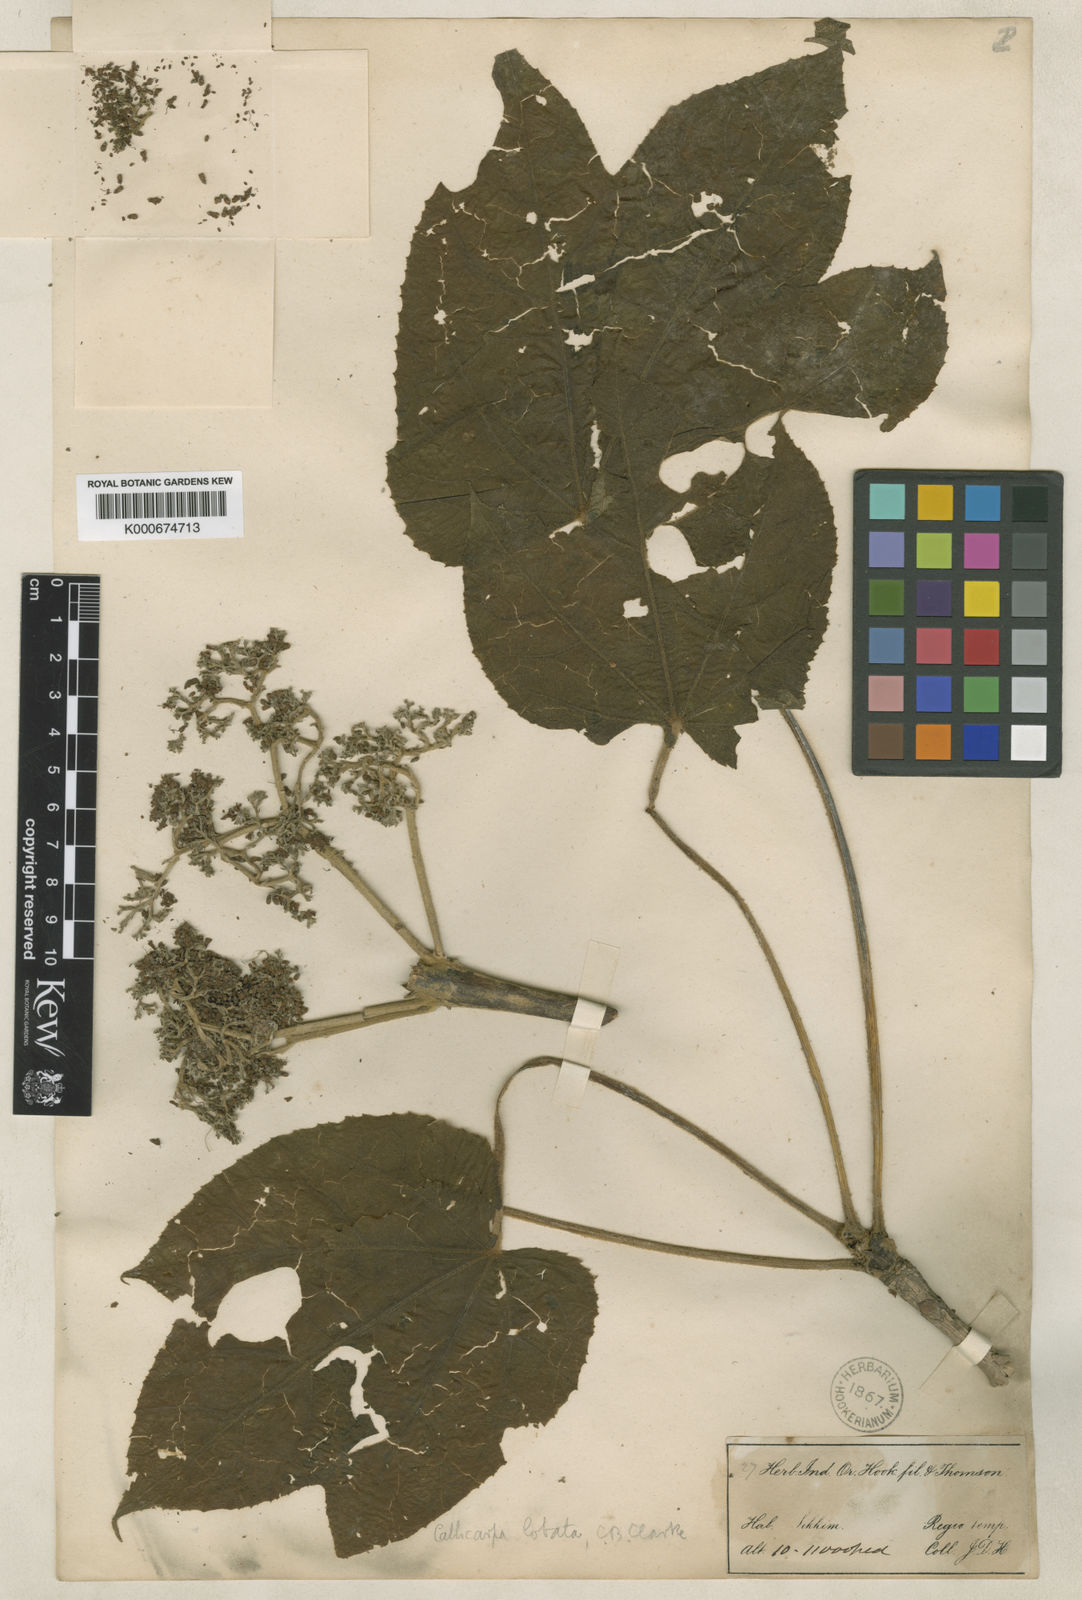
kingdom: Plantae
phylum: Tracheophyta
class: Magnoliopsida
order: Lamiales
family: Lamiaceae
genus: Callicarpa
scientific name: Callicarpa tomentosa
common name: Great woolly malayan-lilac
